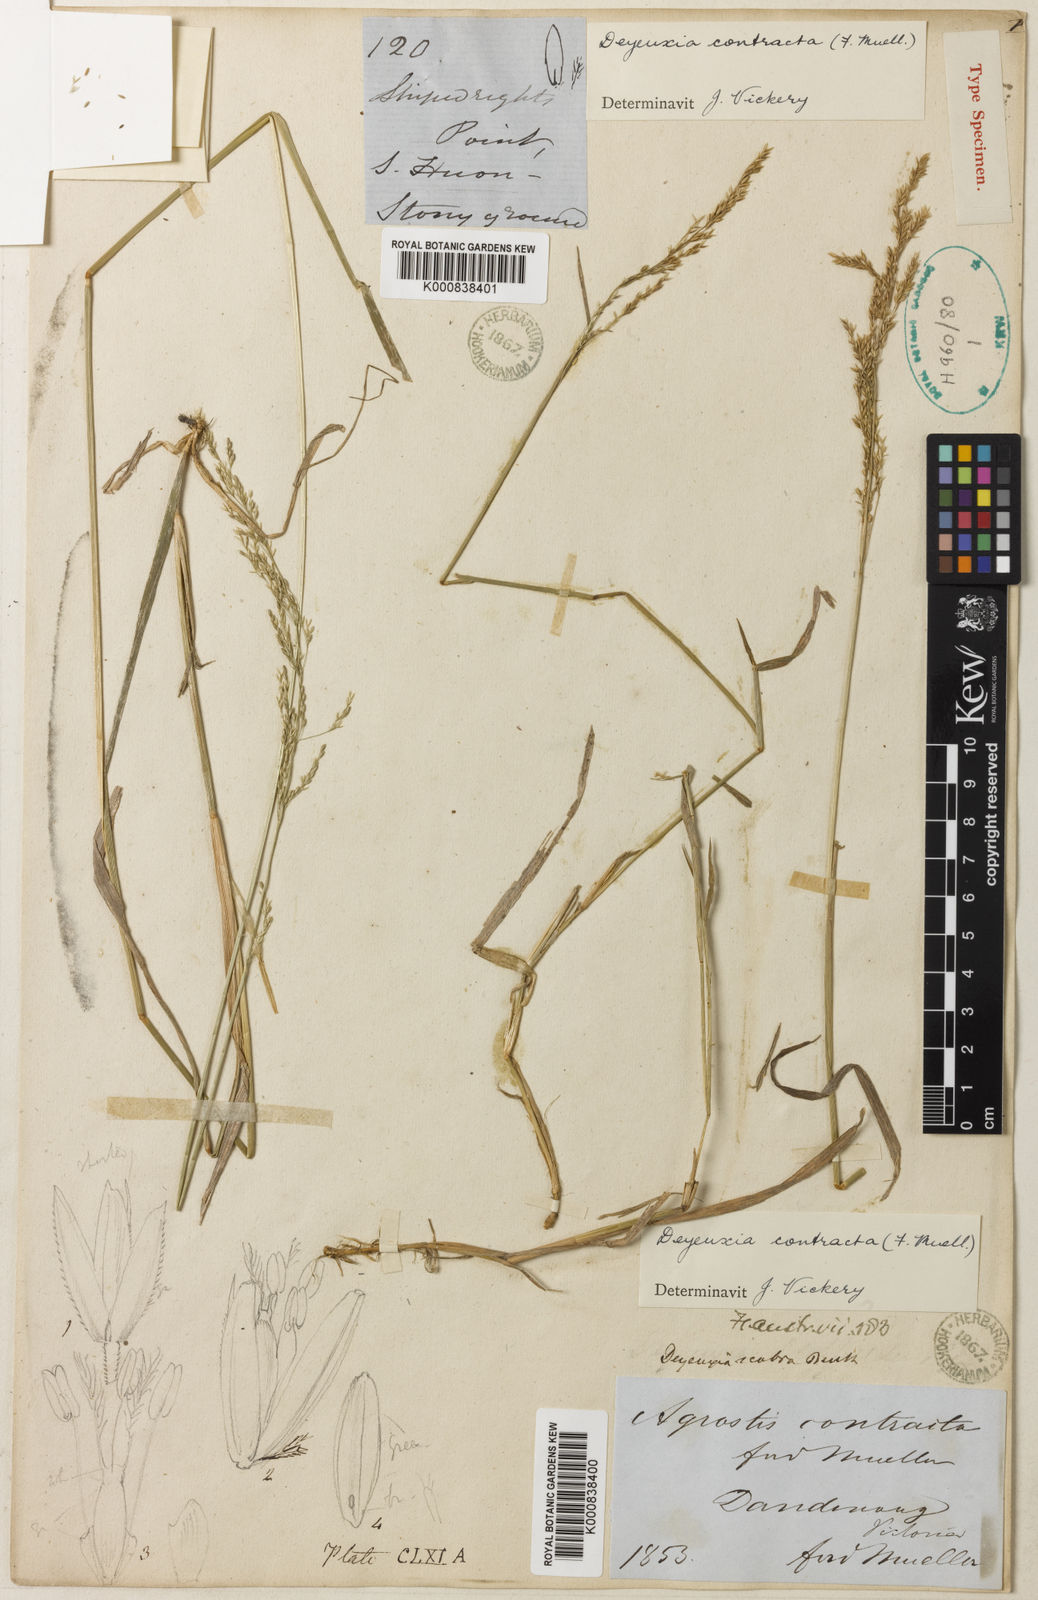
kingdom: Plantae
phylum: Tracheophyta
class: Liliopsida
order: Poales
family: Poaceae
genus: Calamagrostis
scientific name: Calamagrostis
